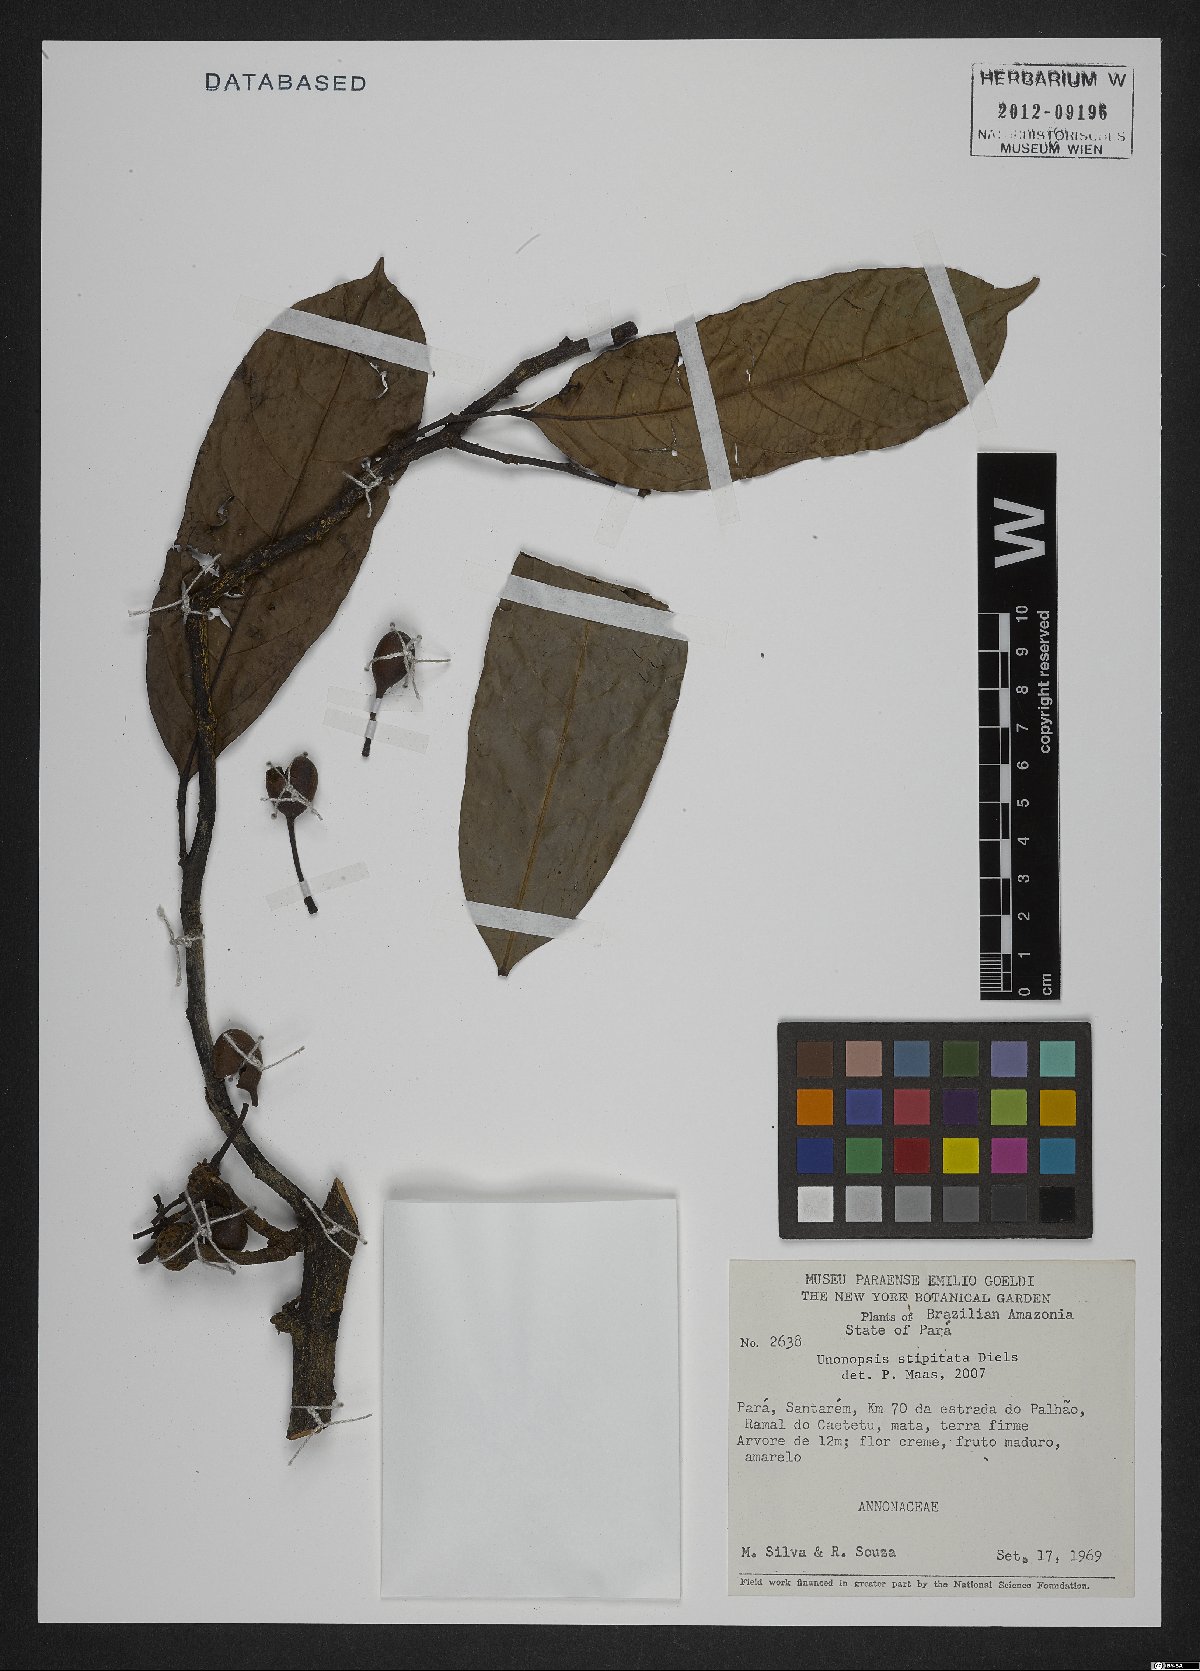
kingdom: Plantae
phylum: Tracheophyta
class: Magnoliopsida
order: Magnoliales
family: Annonaceae
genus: Unonopsis
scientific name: Unonopsis stipitata
